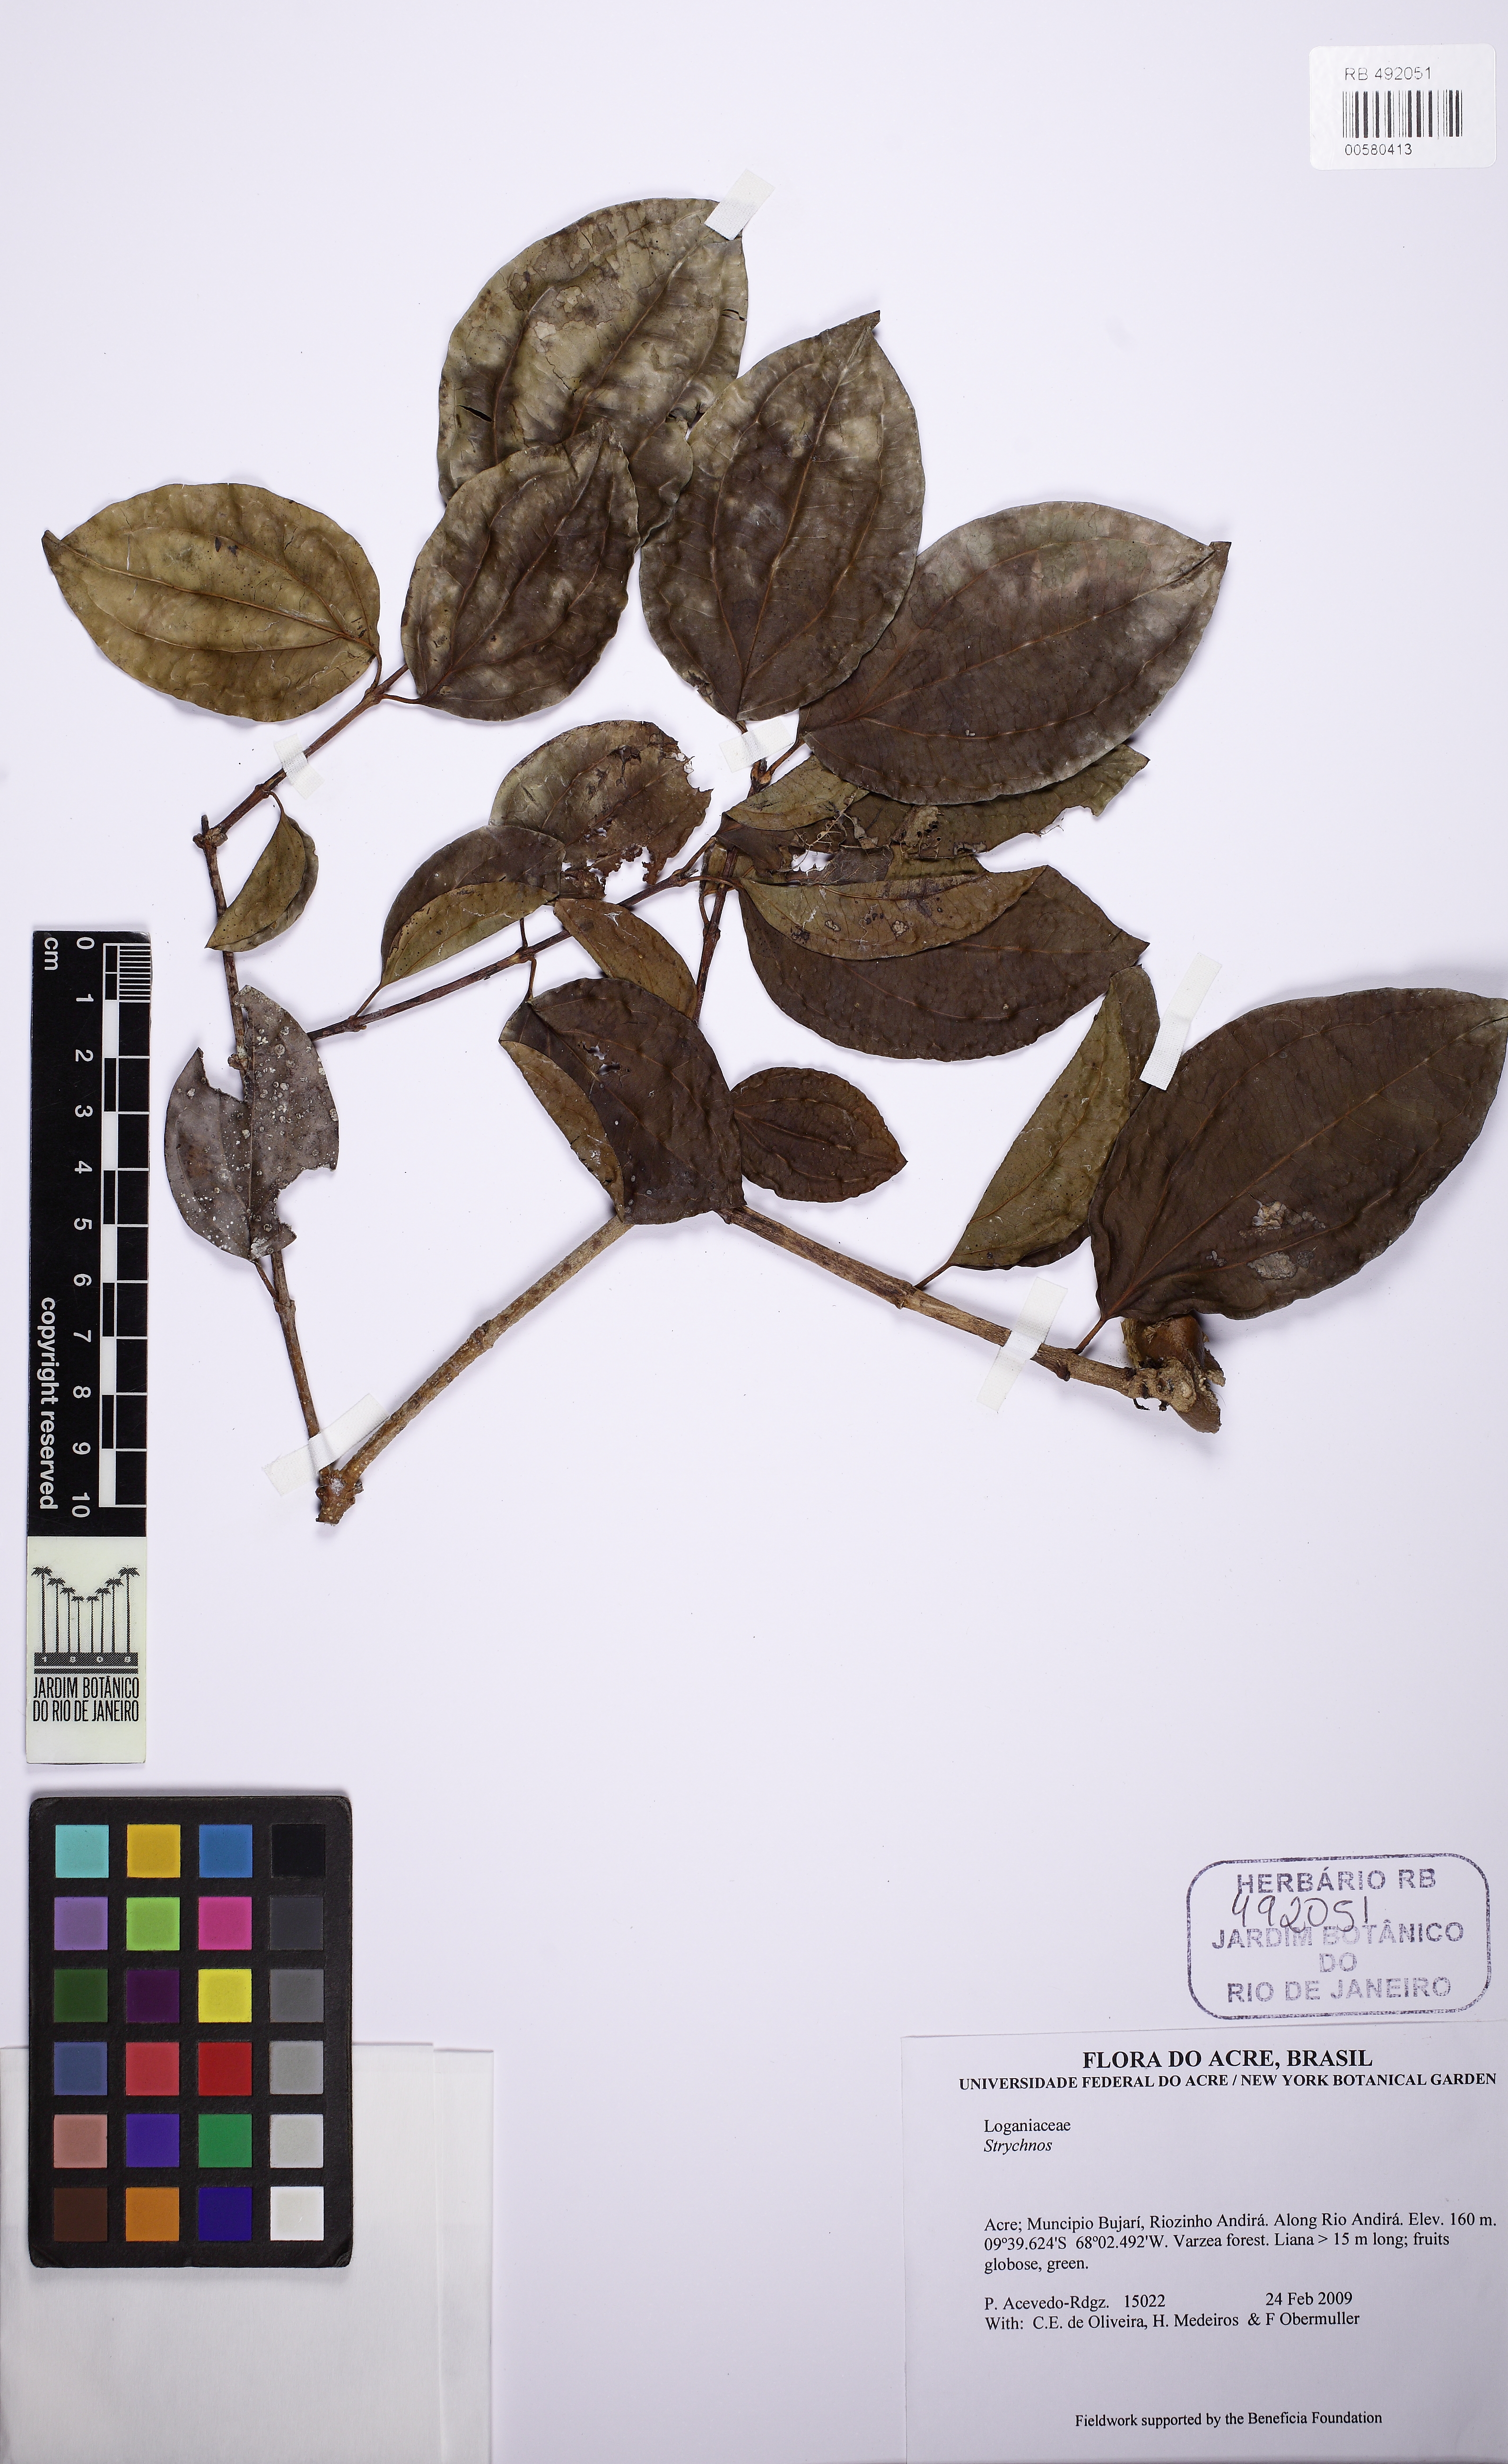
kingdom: Plantae
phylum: Tracheophyta
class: Magnoliopsida
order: Gentianales
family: Loganiaceae
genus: Strychnos
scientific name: Strychnos
